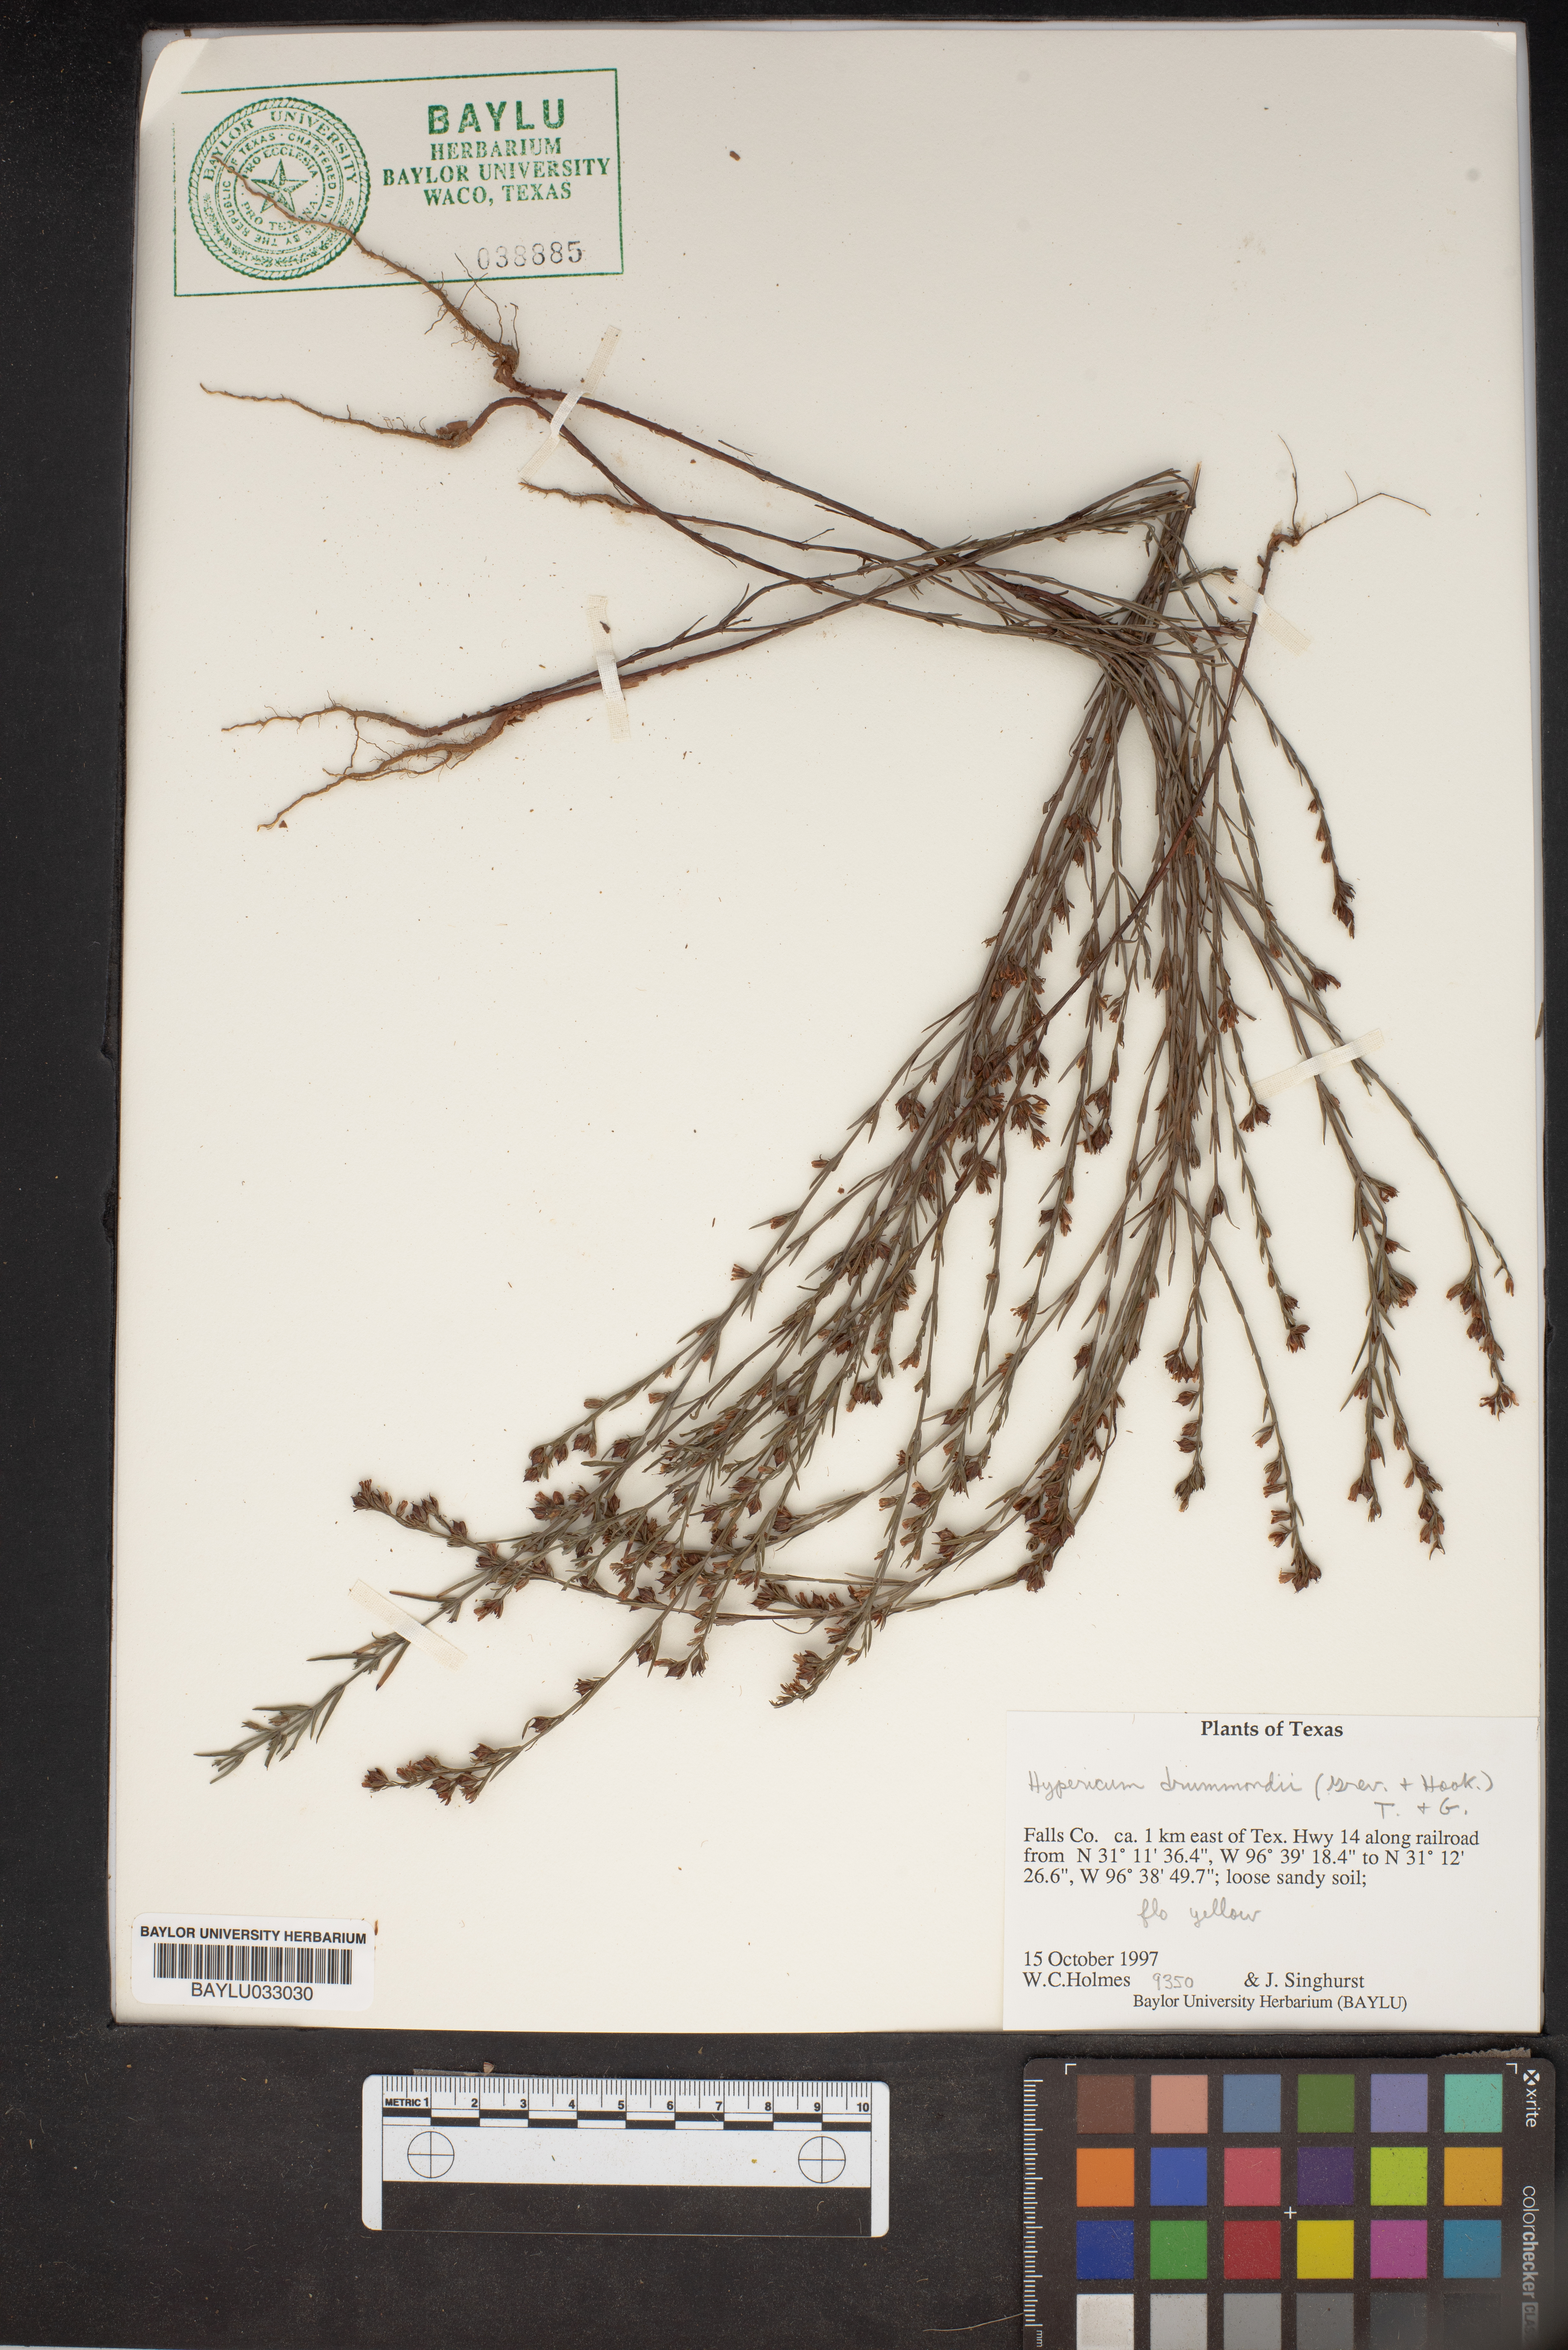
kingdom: Plantae
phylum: Tracheophyta
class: Magnoliopsida
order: Malpighiales
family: Hypericaceae
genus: Hypericum
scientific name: Hypericum drummondii
